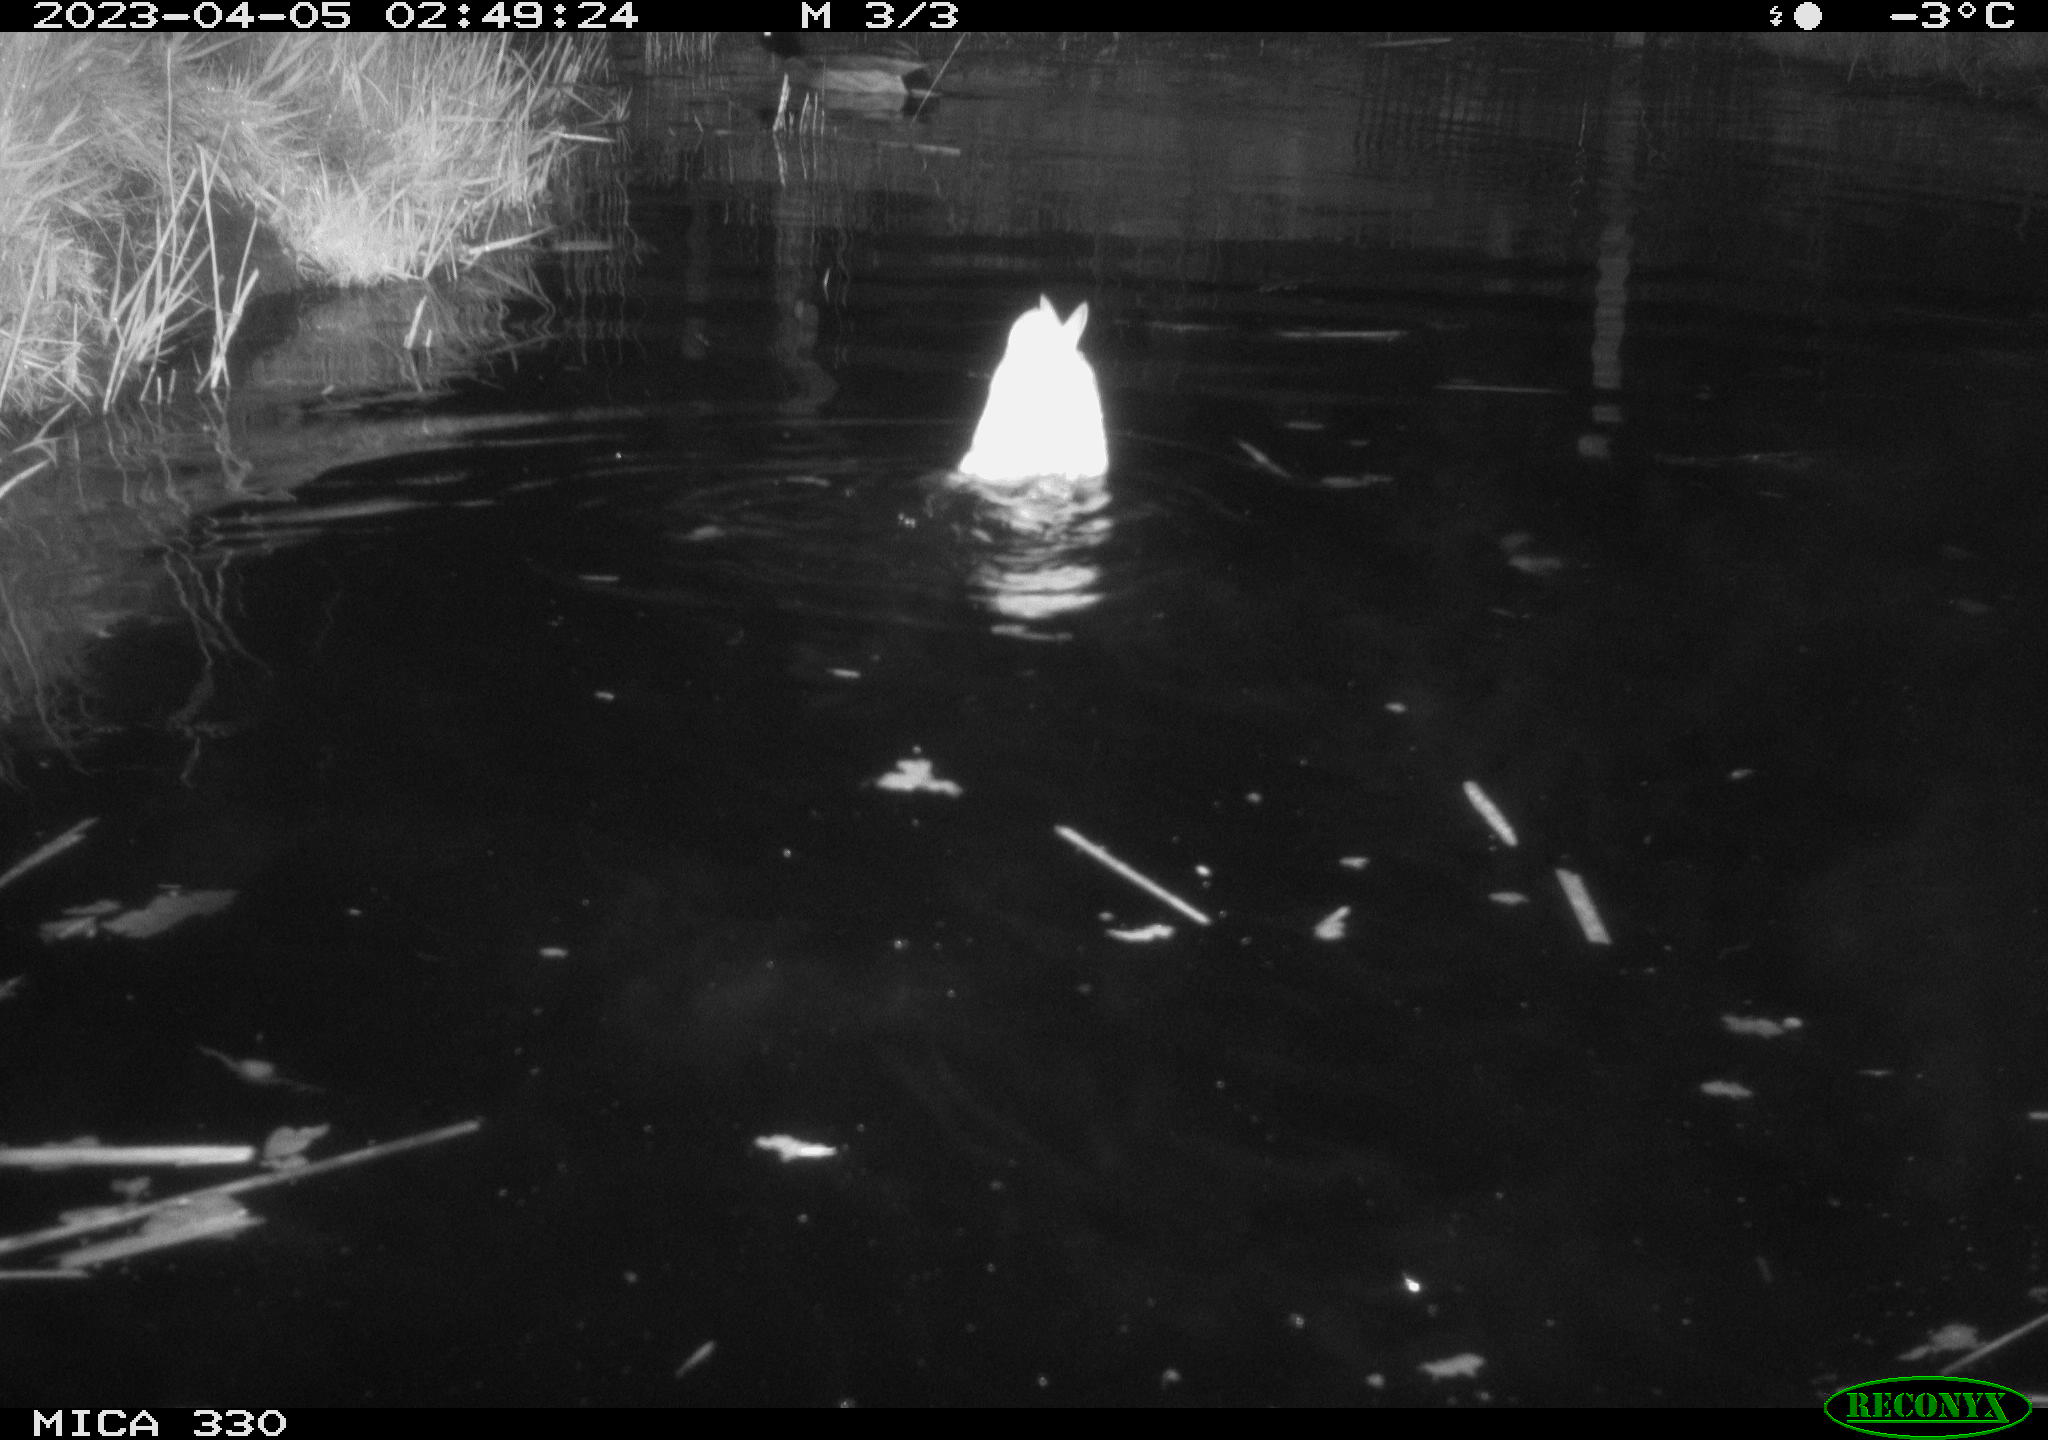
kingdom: Animalia
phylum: Chordata
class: Aves
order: Anseriformes
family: Anatidae
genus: Anas
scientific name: Anas
